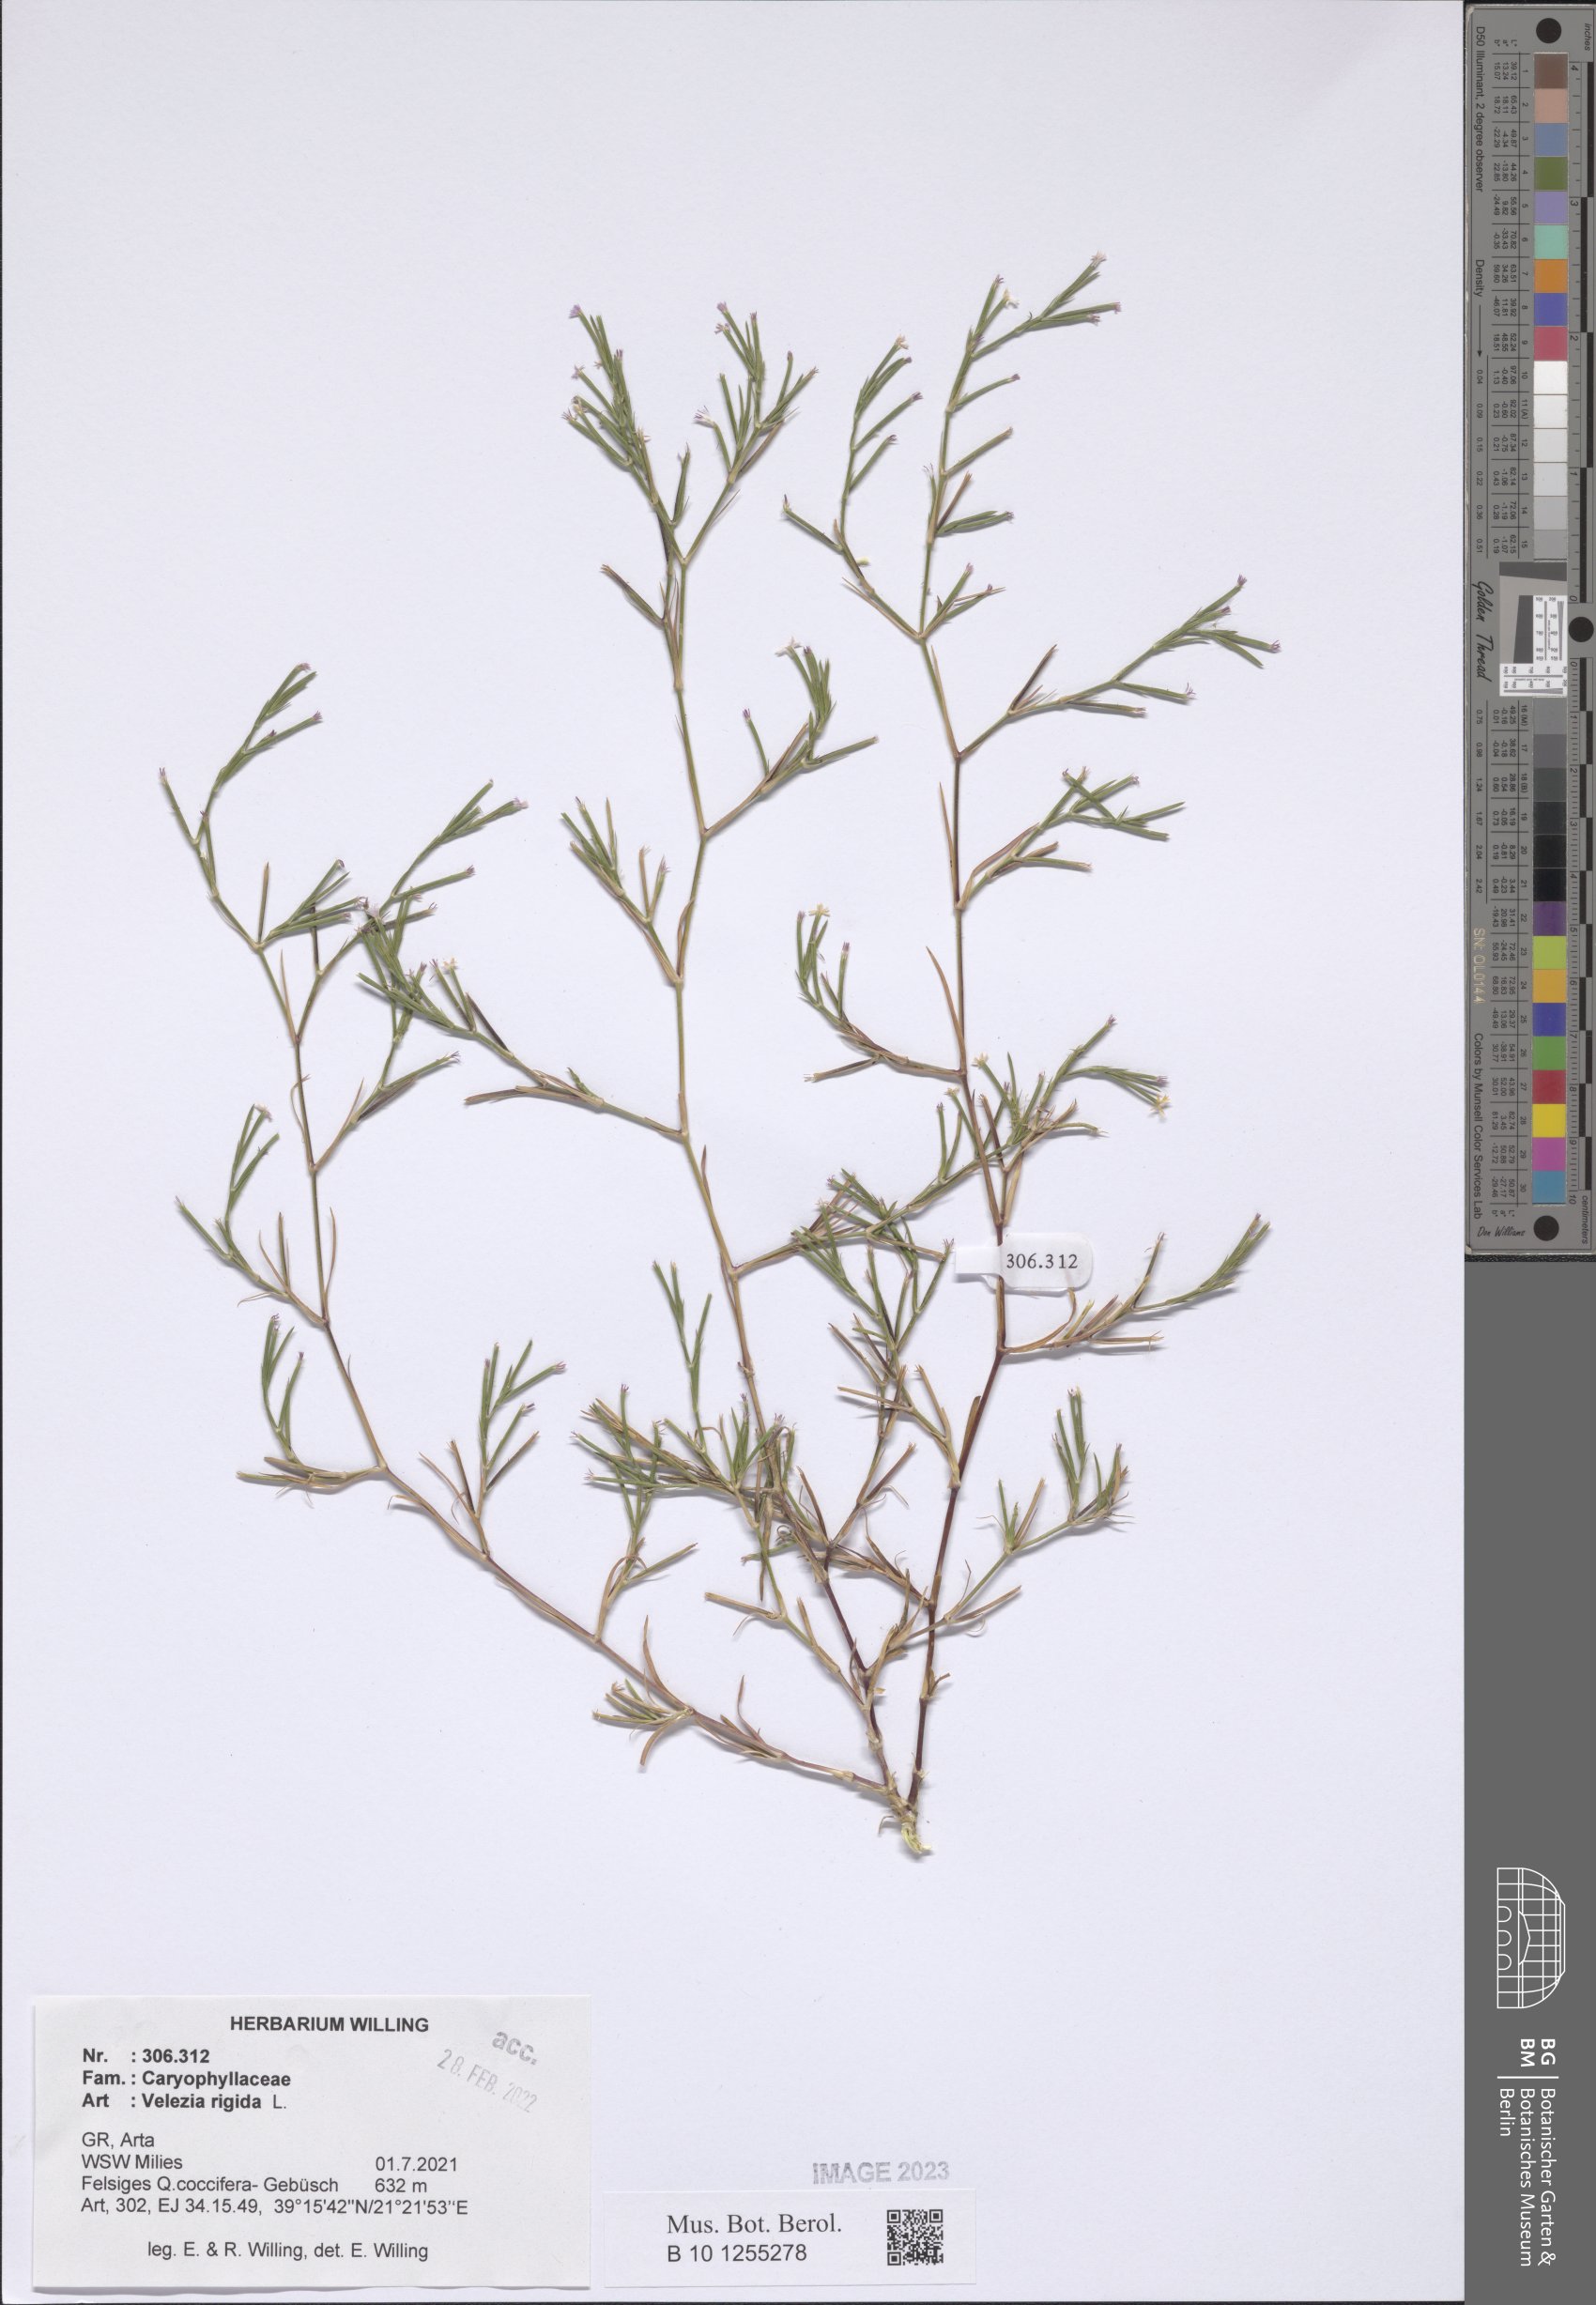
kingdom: Plantae
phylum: Tracheophyta
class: Magnoliopsida
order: Caryophyllales
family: Caryophyllaceae
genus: Dianthus
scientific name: Dianthus nudiflorus
